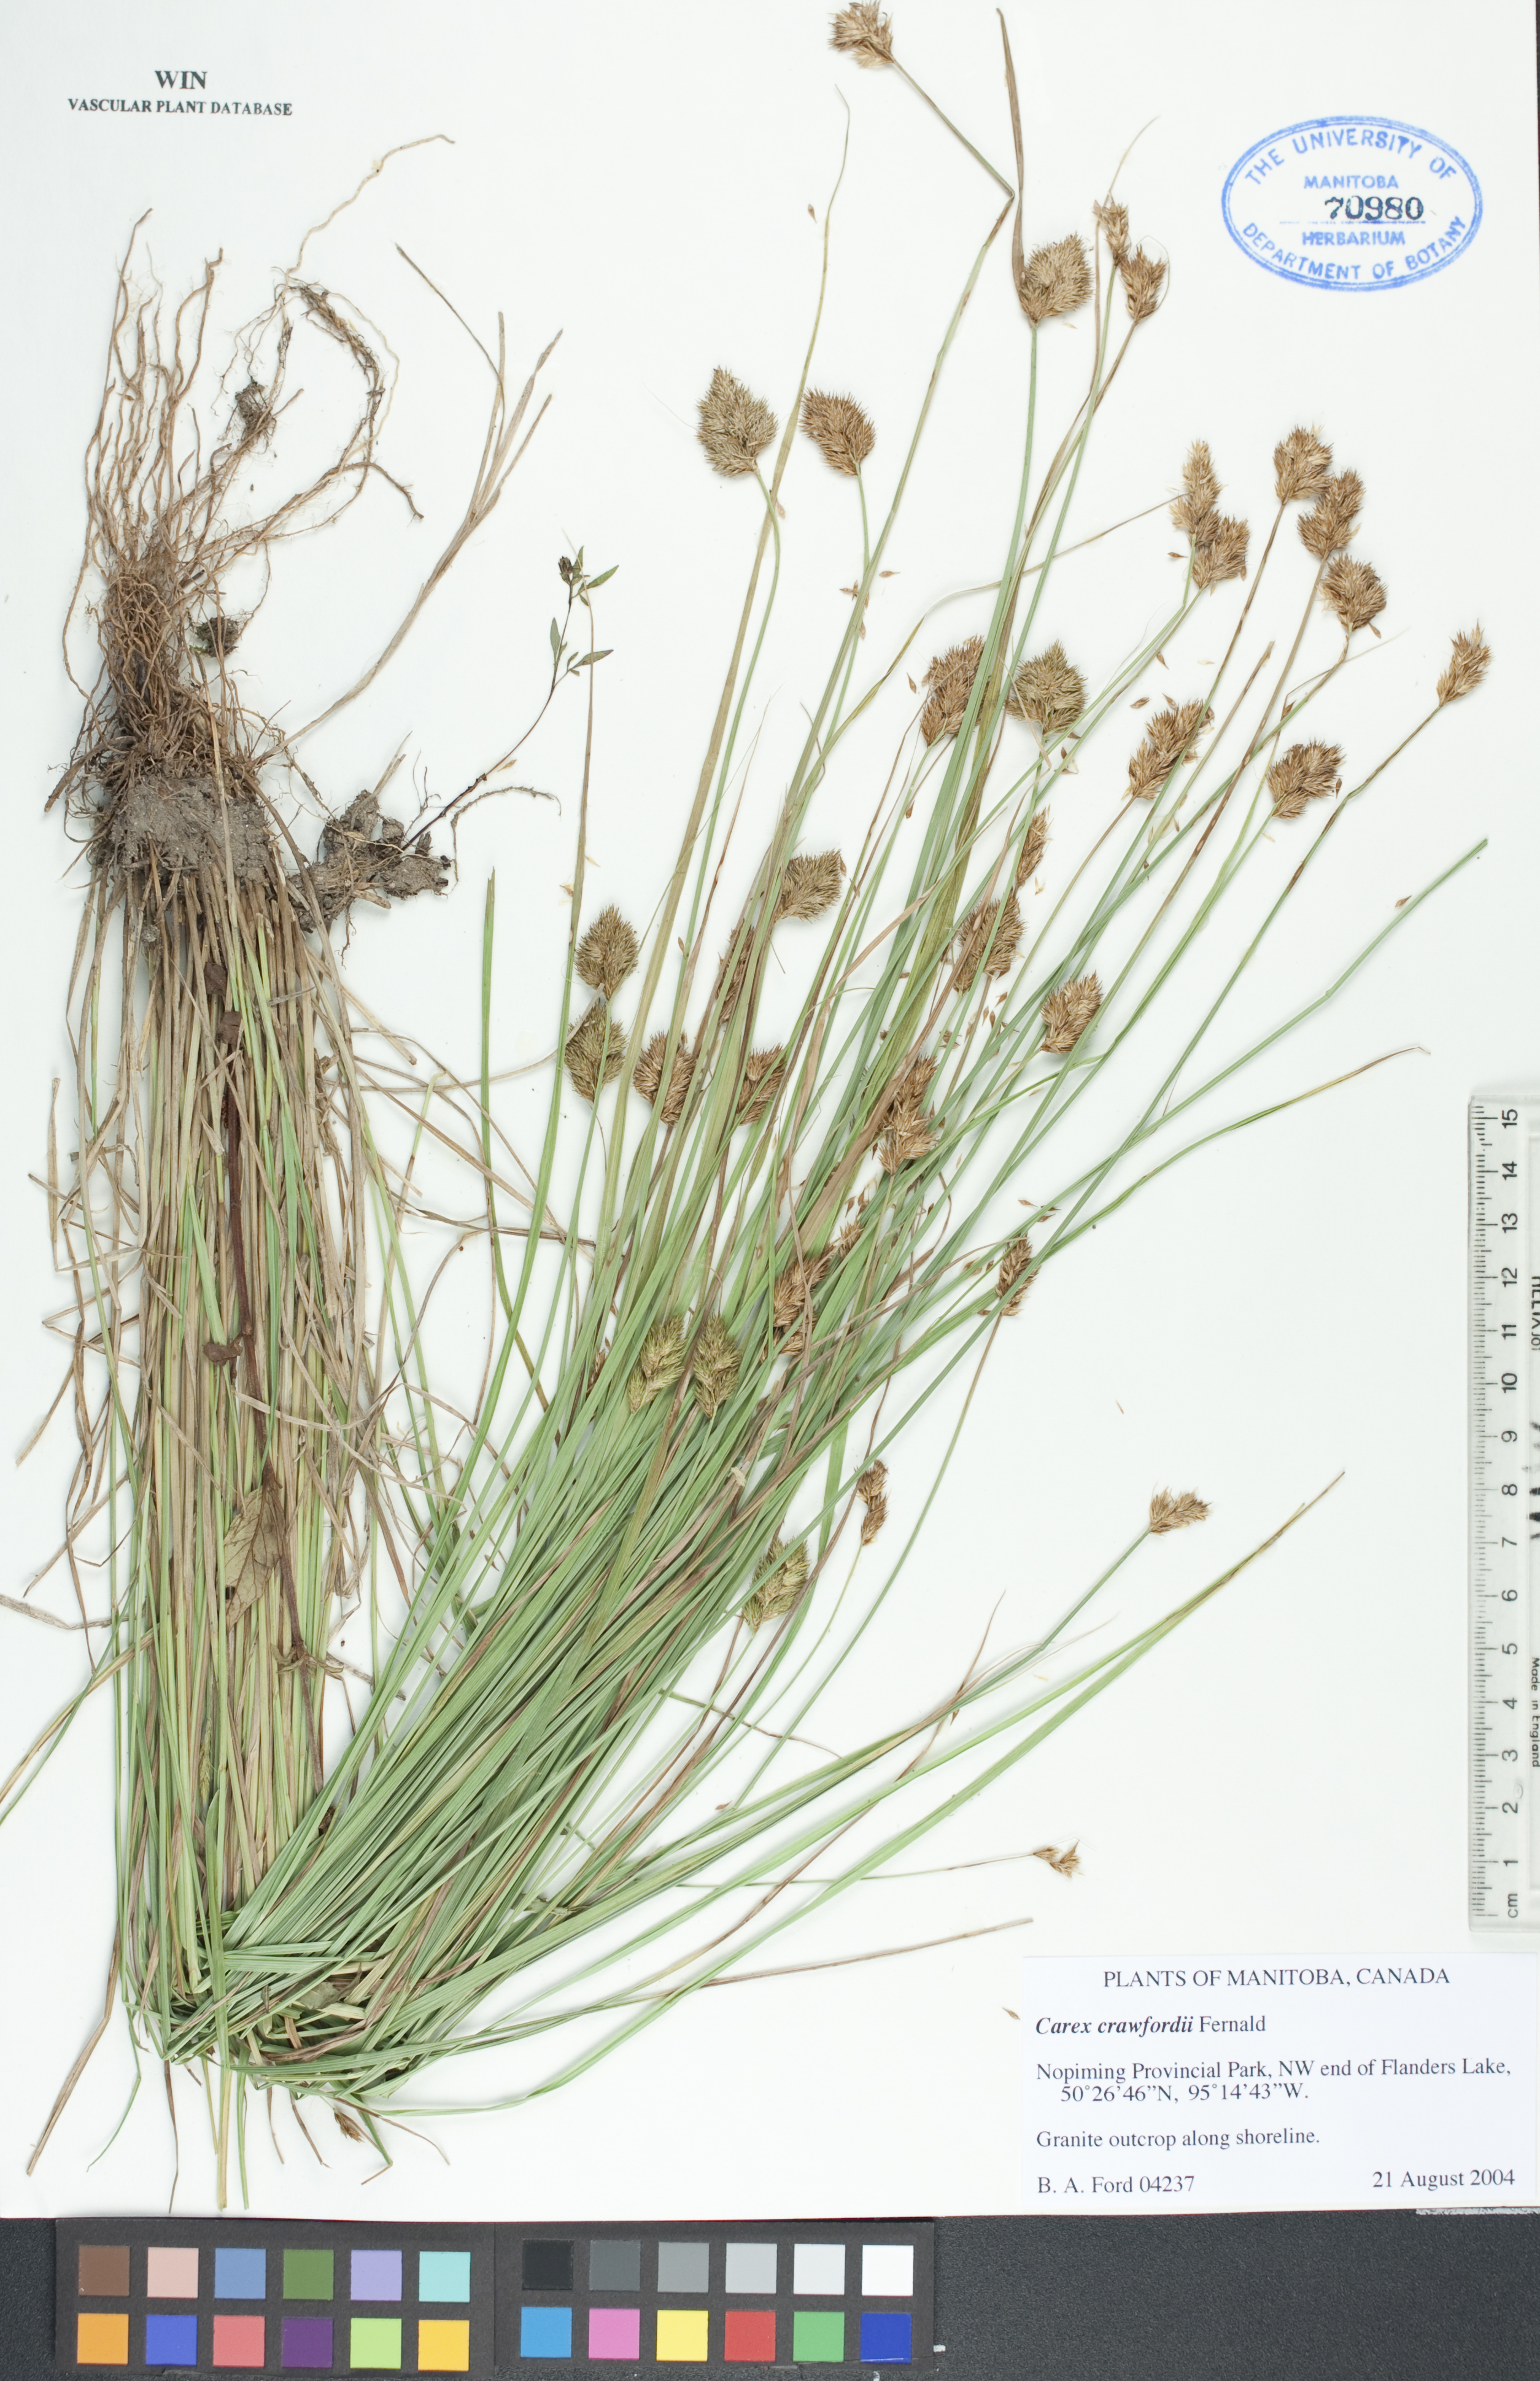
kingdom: Plantae
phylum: Tracheophyta
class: Liliopsida
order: Poales
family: Cyperaceae
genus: Carex
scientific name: Carex crawfordii
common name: Crawford's sedge
